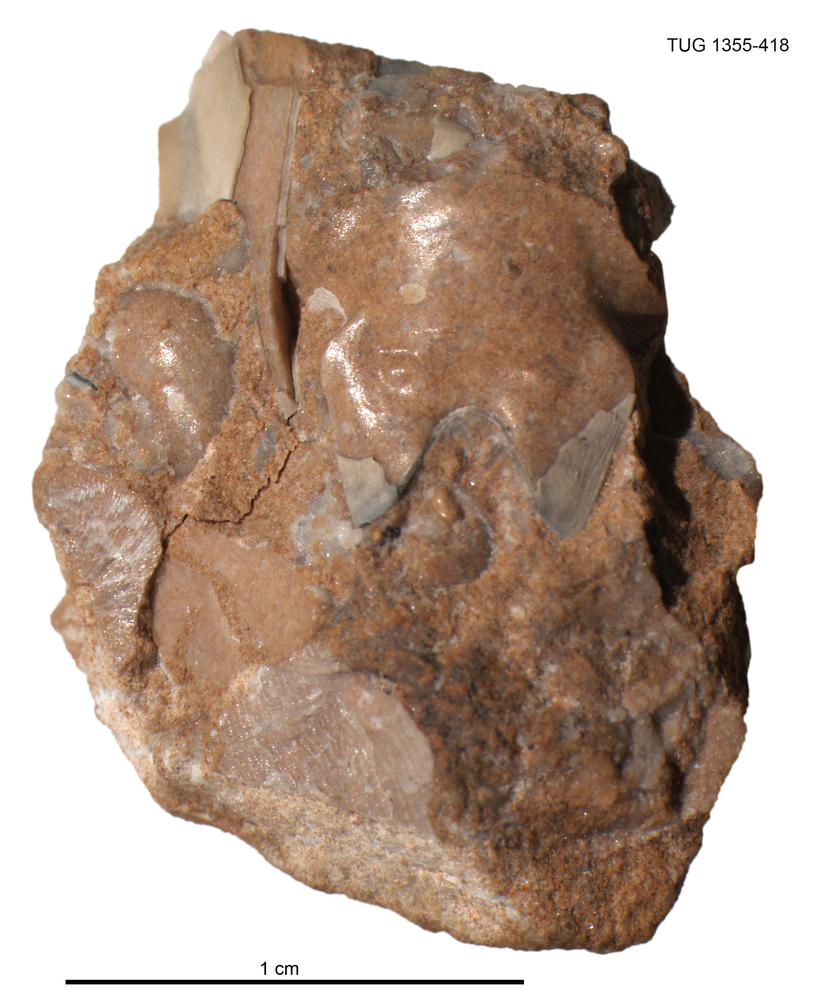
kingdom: Animalia
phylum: Arthropoda
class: Trilobita
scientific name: Trilobita
